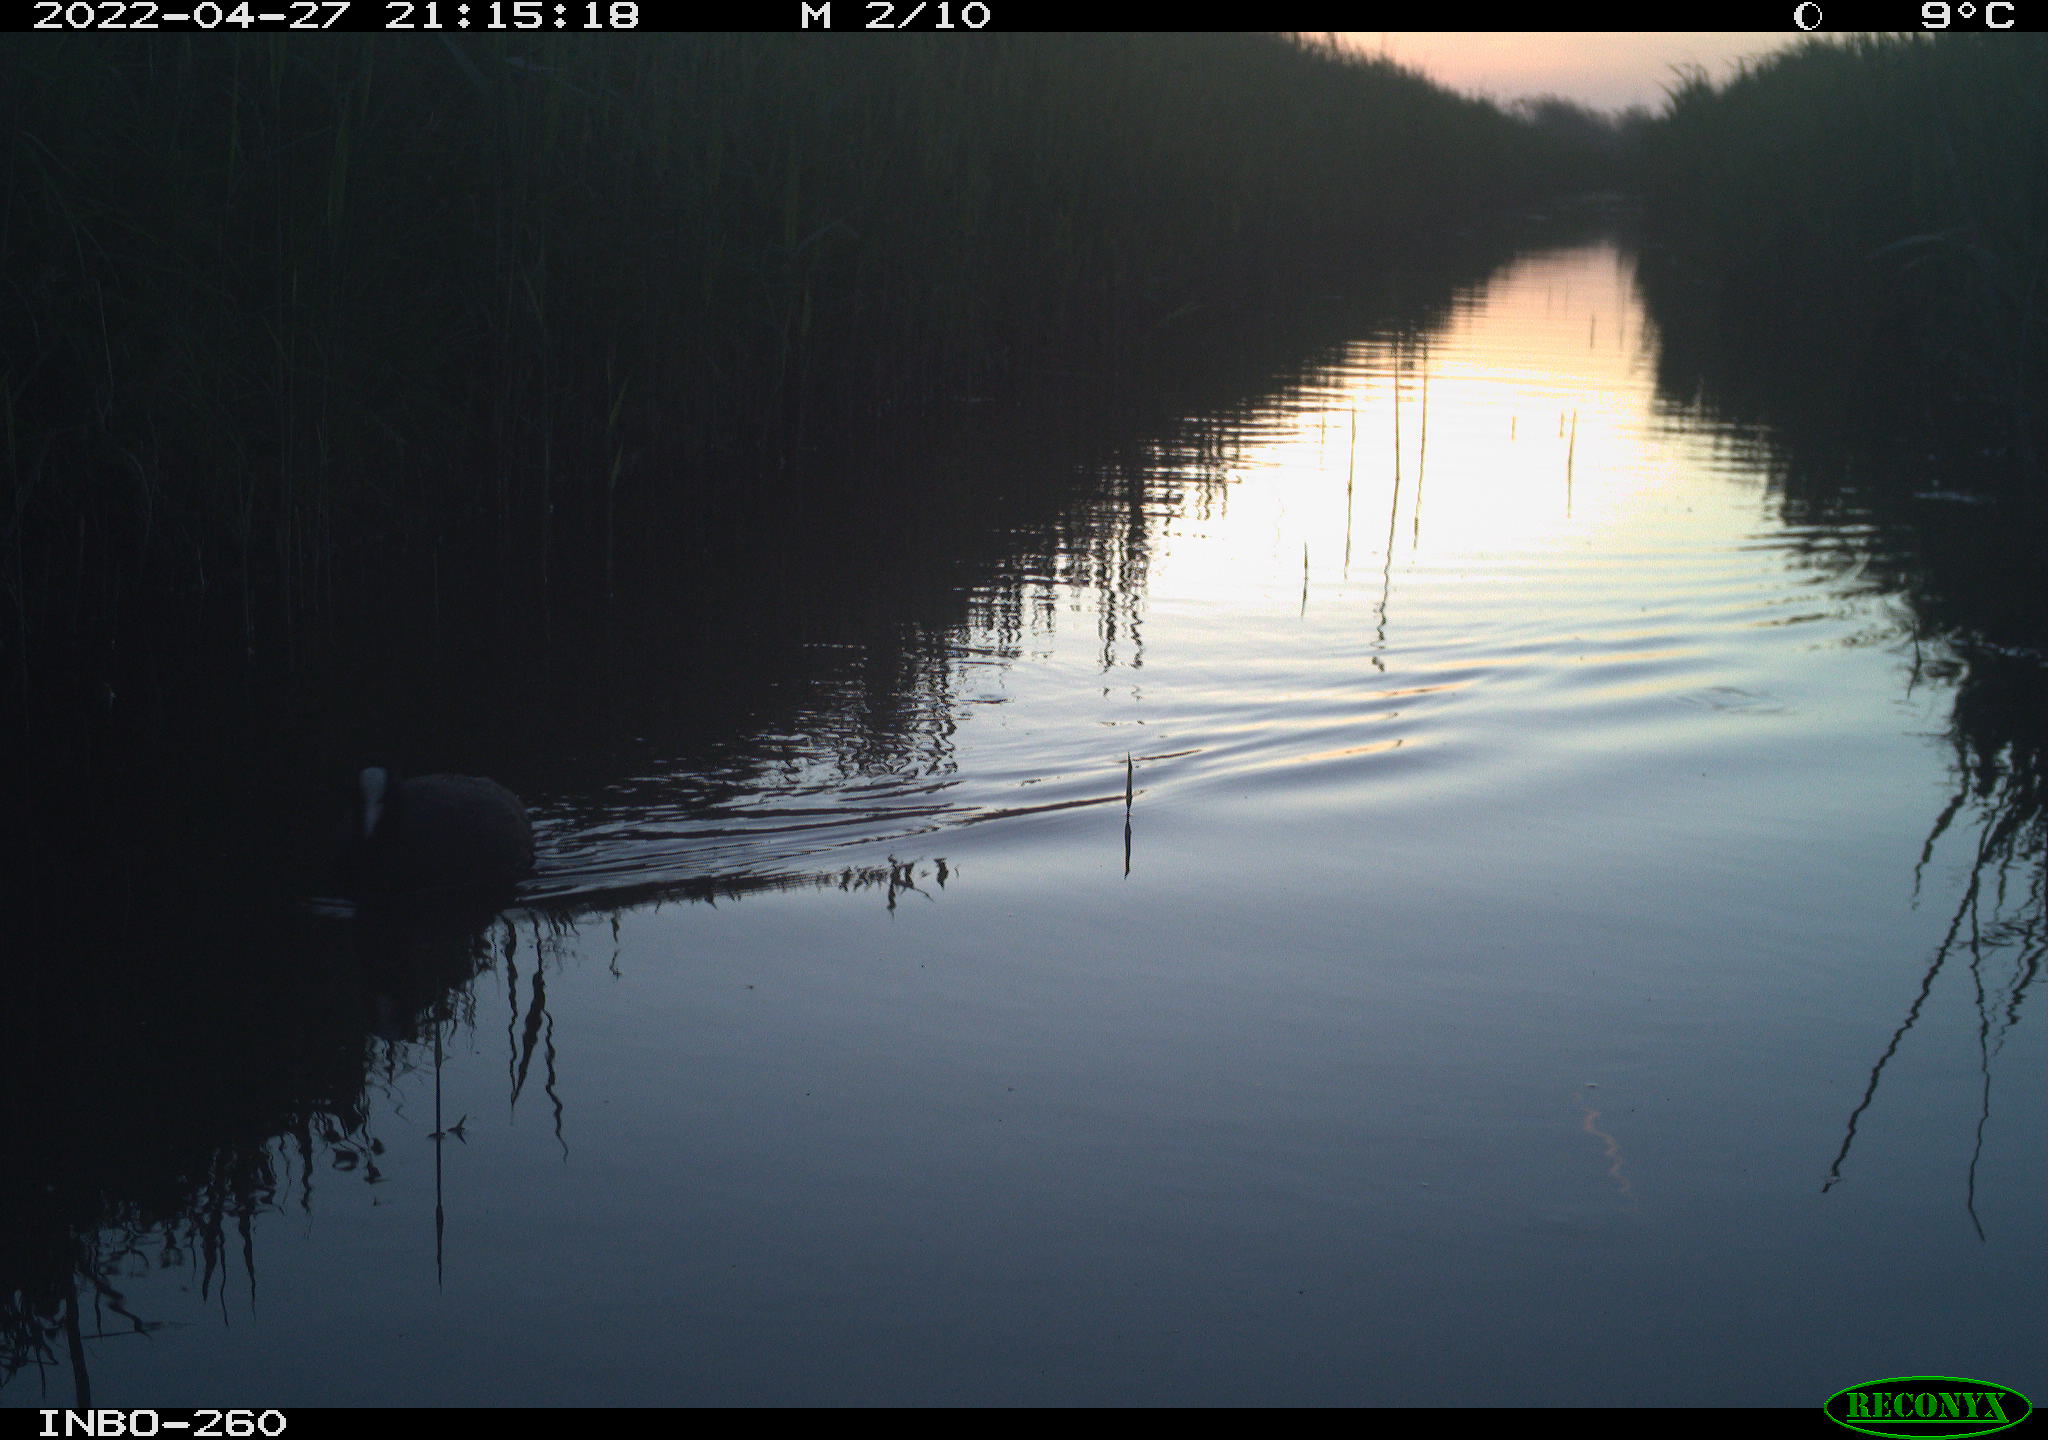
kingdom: Animalia
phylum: Chordata
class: Aves
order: Gruiformes
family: Rallidae
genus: Fulica
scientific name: Fulica atra
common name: Eurasian coot
